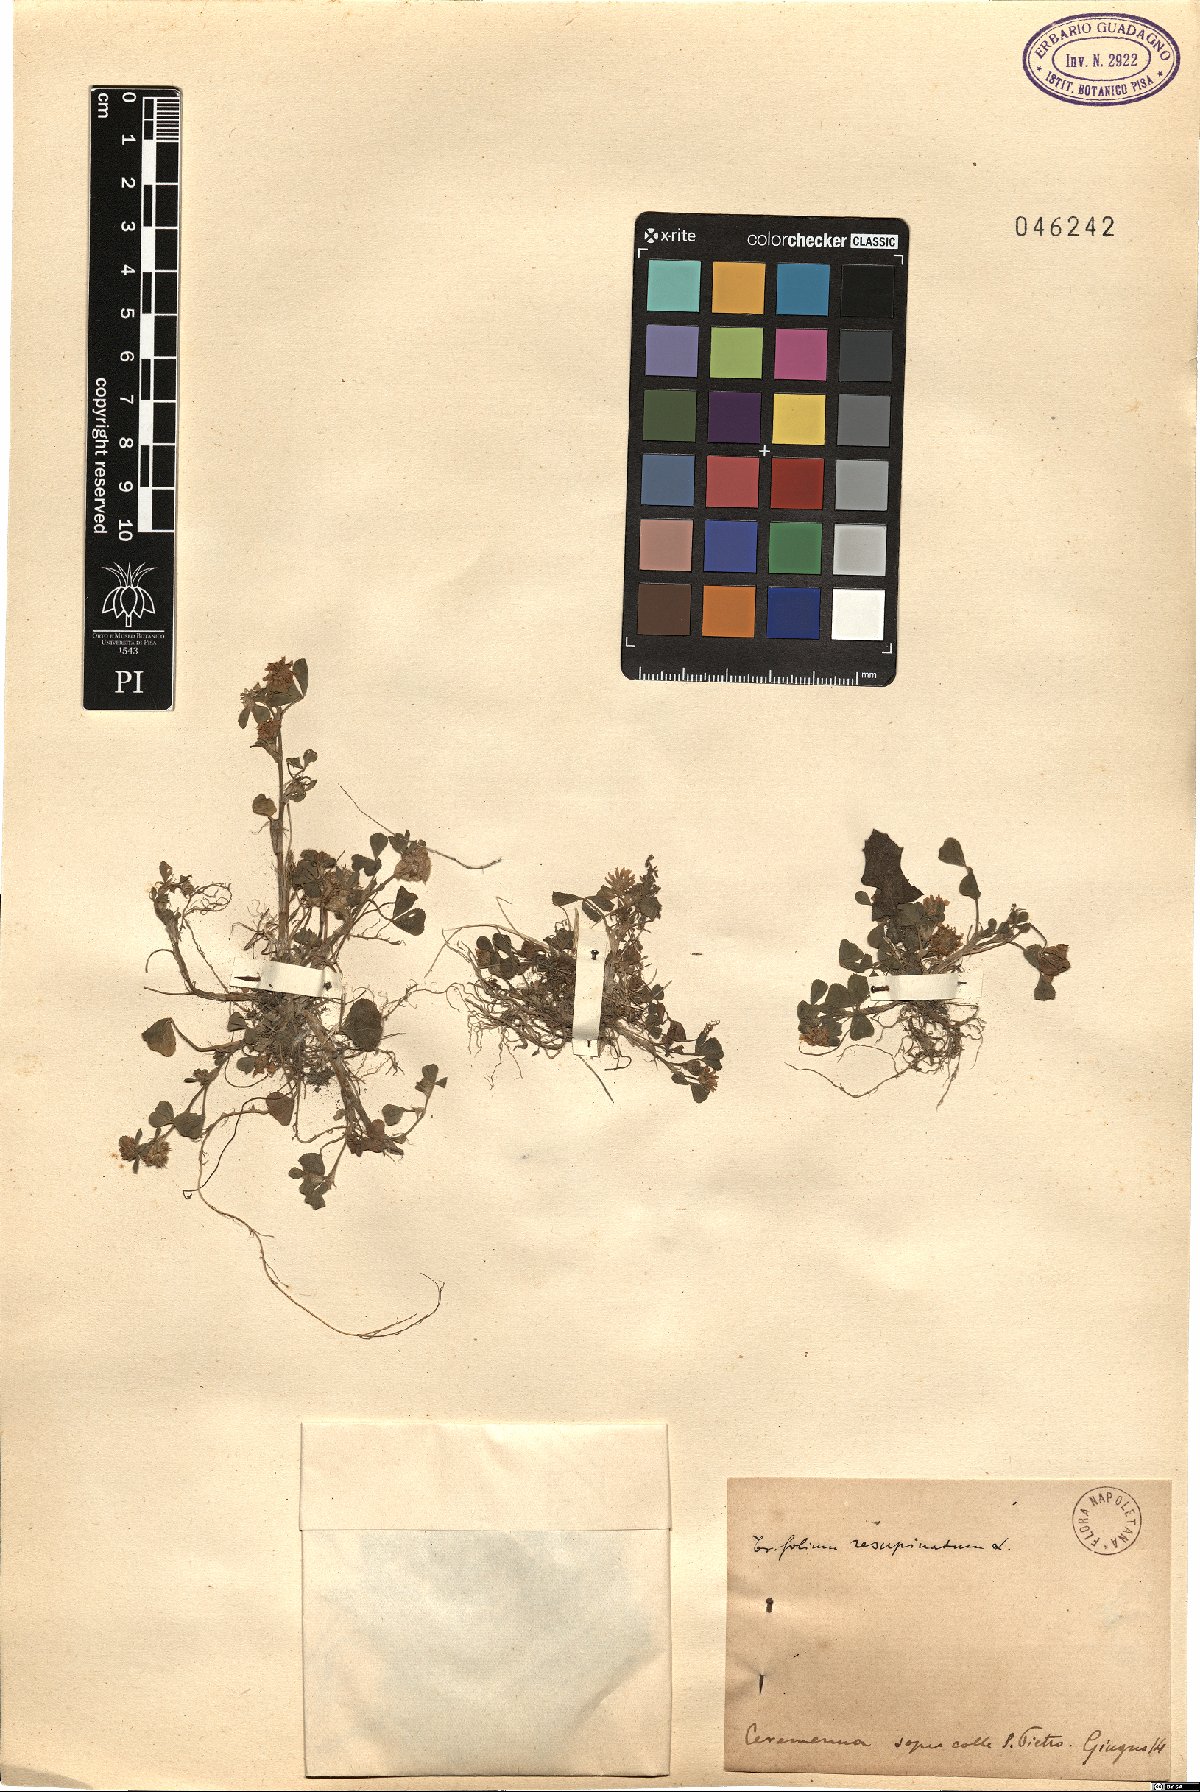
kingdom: Plantae
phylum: Tracheophyta
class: Magnoliopsida
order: Fabales
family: Fabaceae
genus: Trifolium
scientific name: Trifolium resupinatum
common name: Reversed clover
